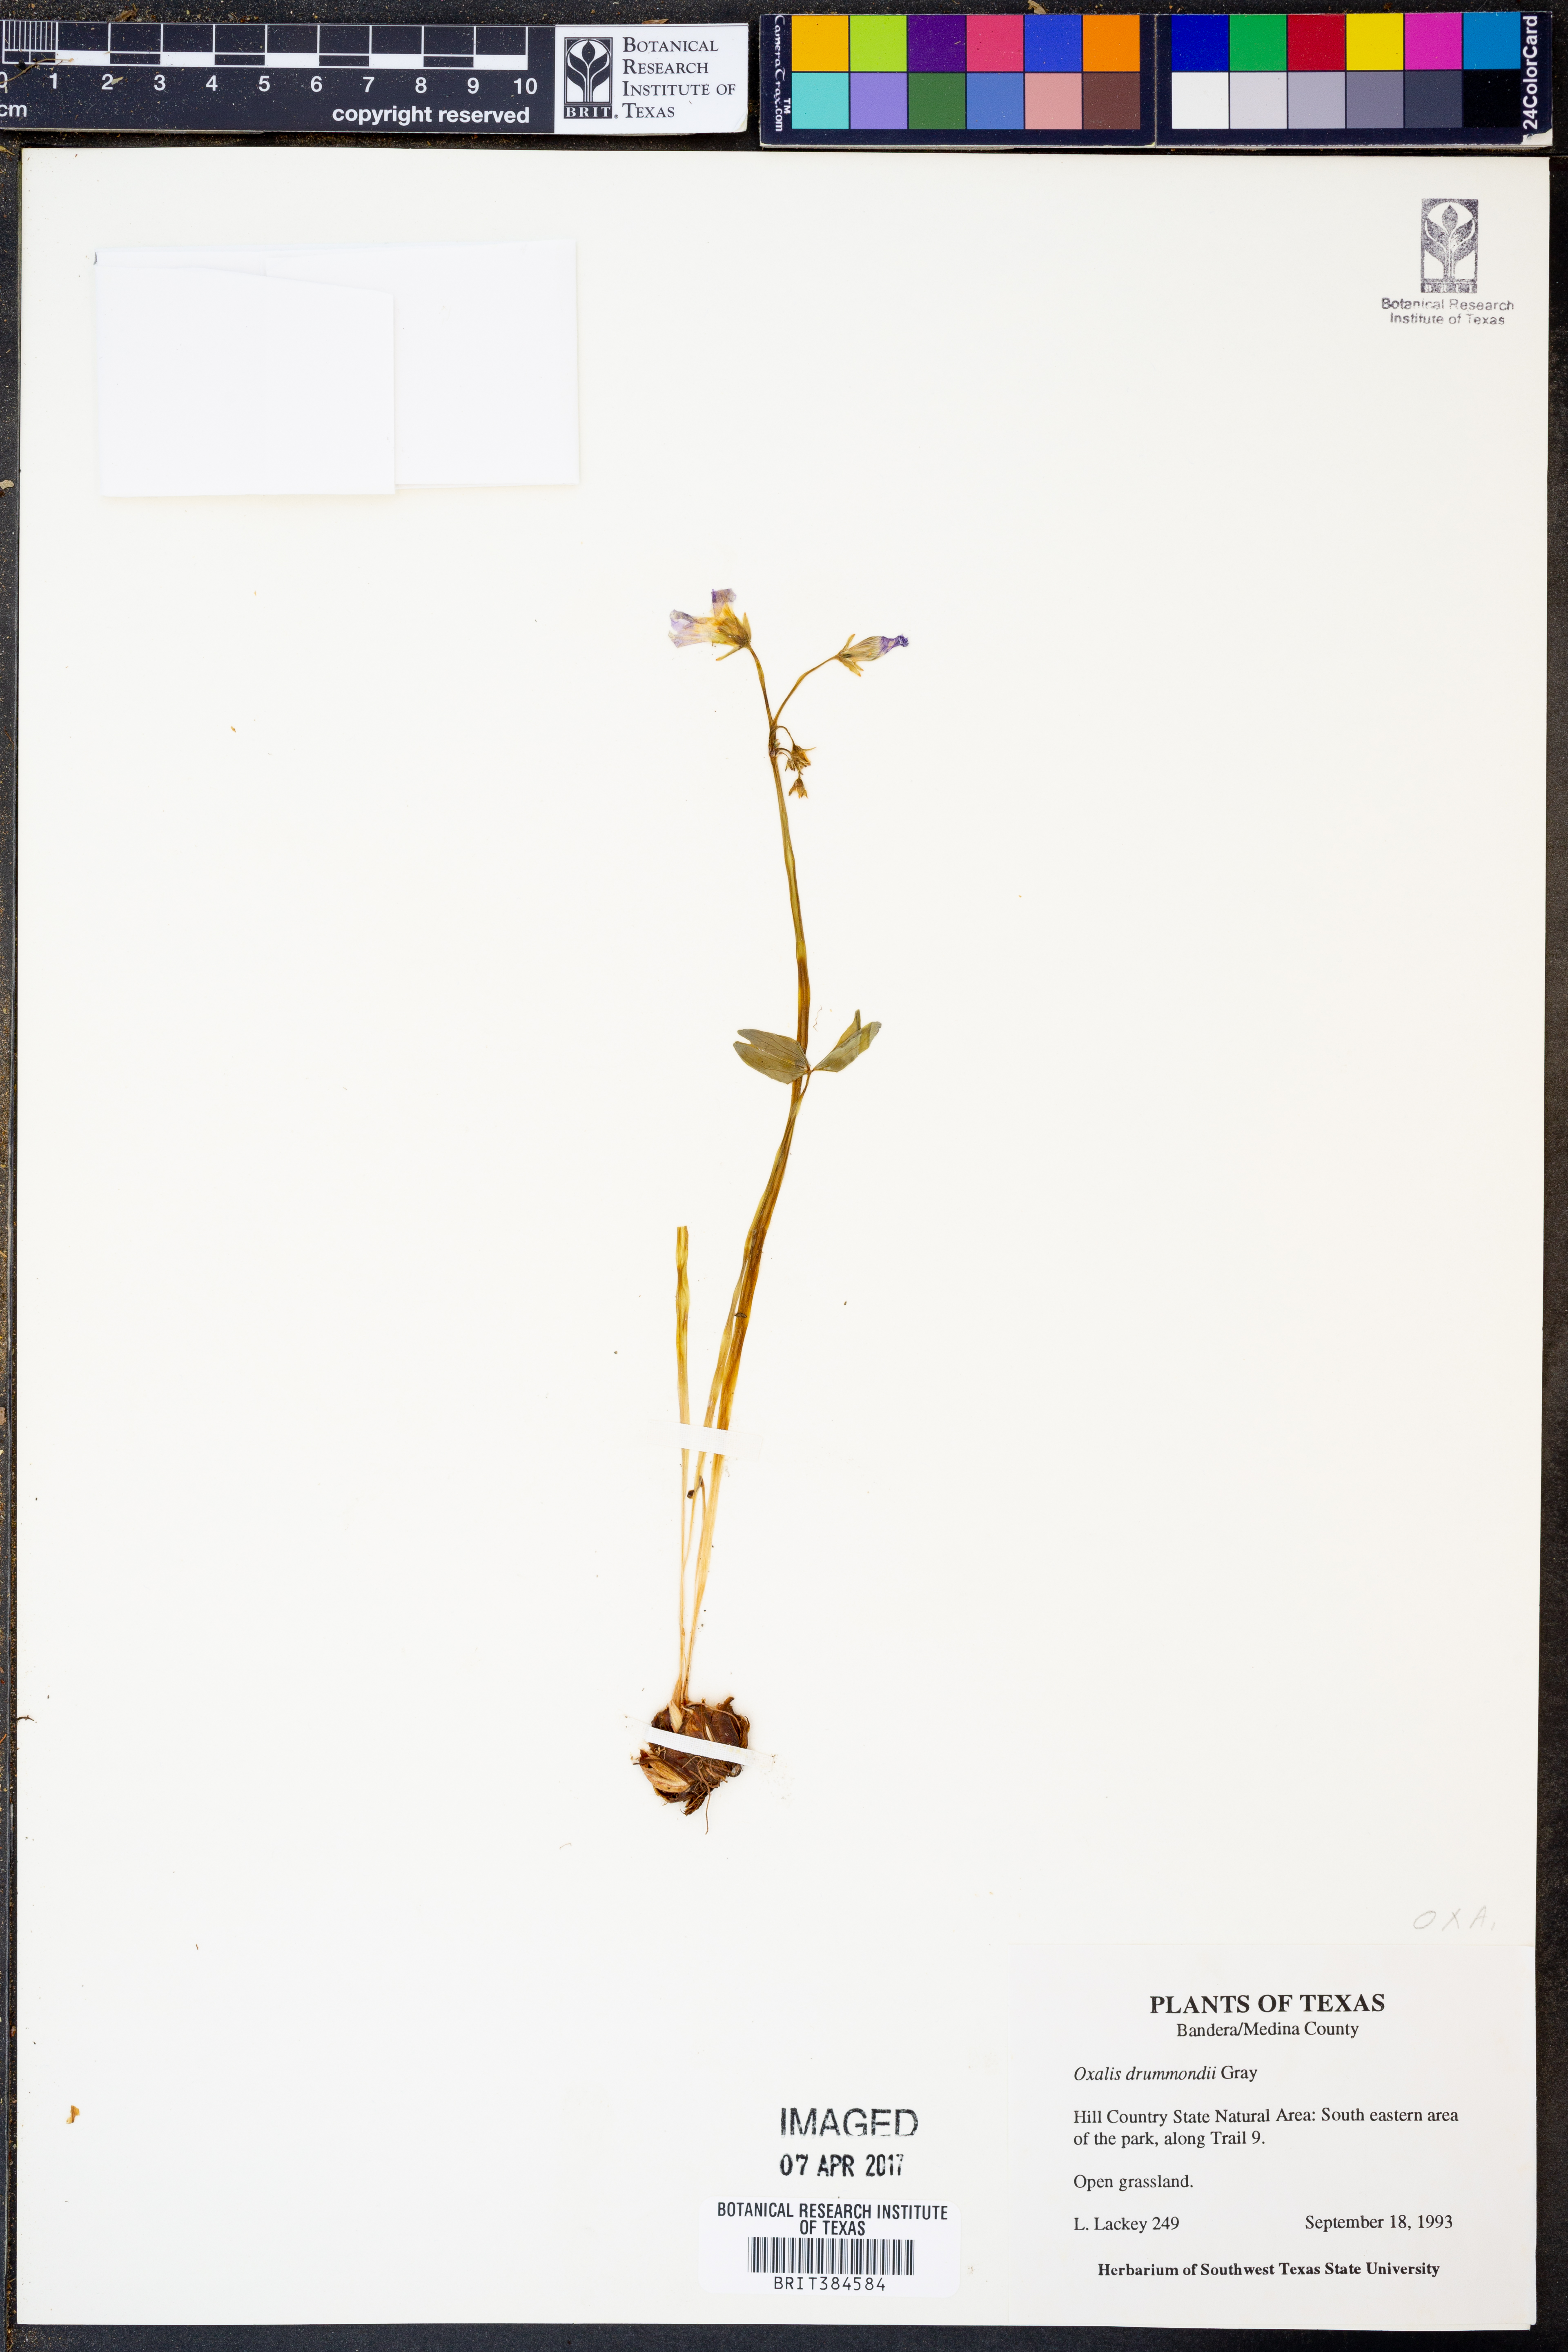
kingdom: Plantae
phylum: Tracheophyta
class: Magnoliopsida
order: Oxalidales
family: Oxalidaceae
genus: Oxalis
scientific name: Oxalis drummondii
